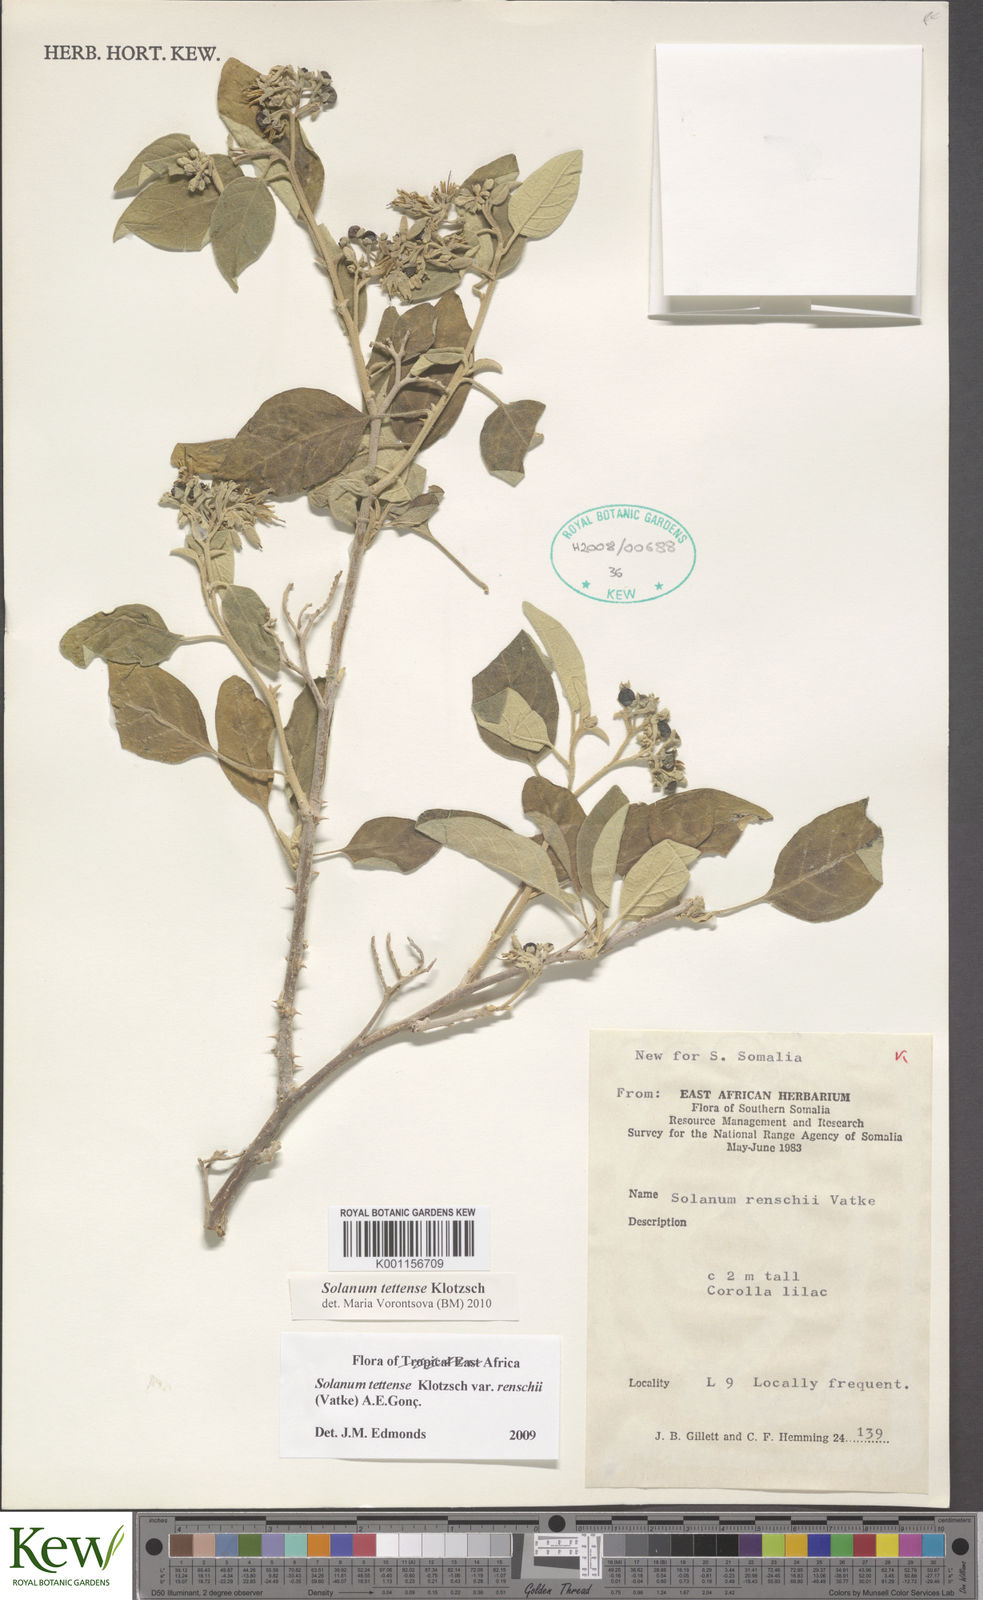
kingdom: Plantae
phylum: Tracheophyta
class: Magnoliopsida
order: Solanales
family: Solanaceae
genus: Solanum
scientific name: Solanum tettense
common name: Mozambique bitter apple
